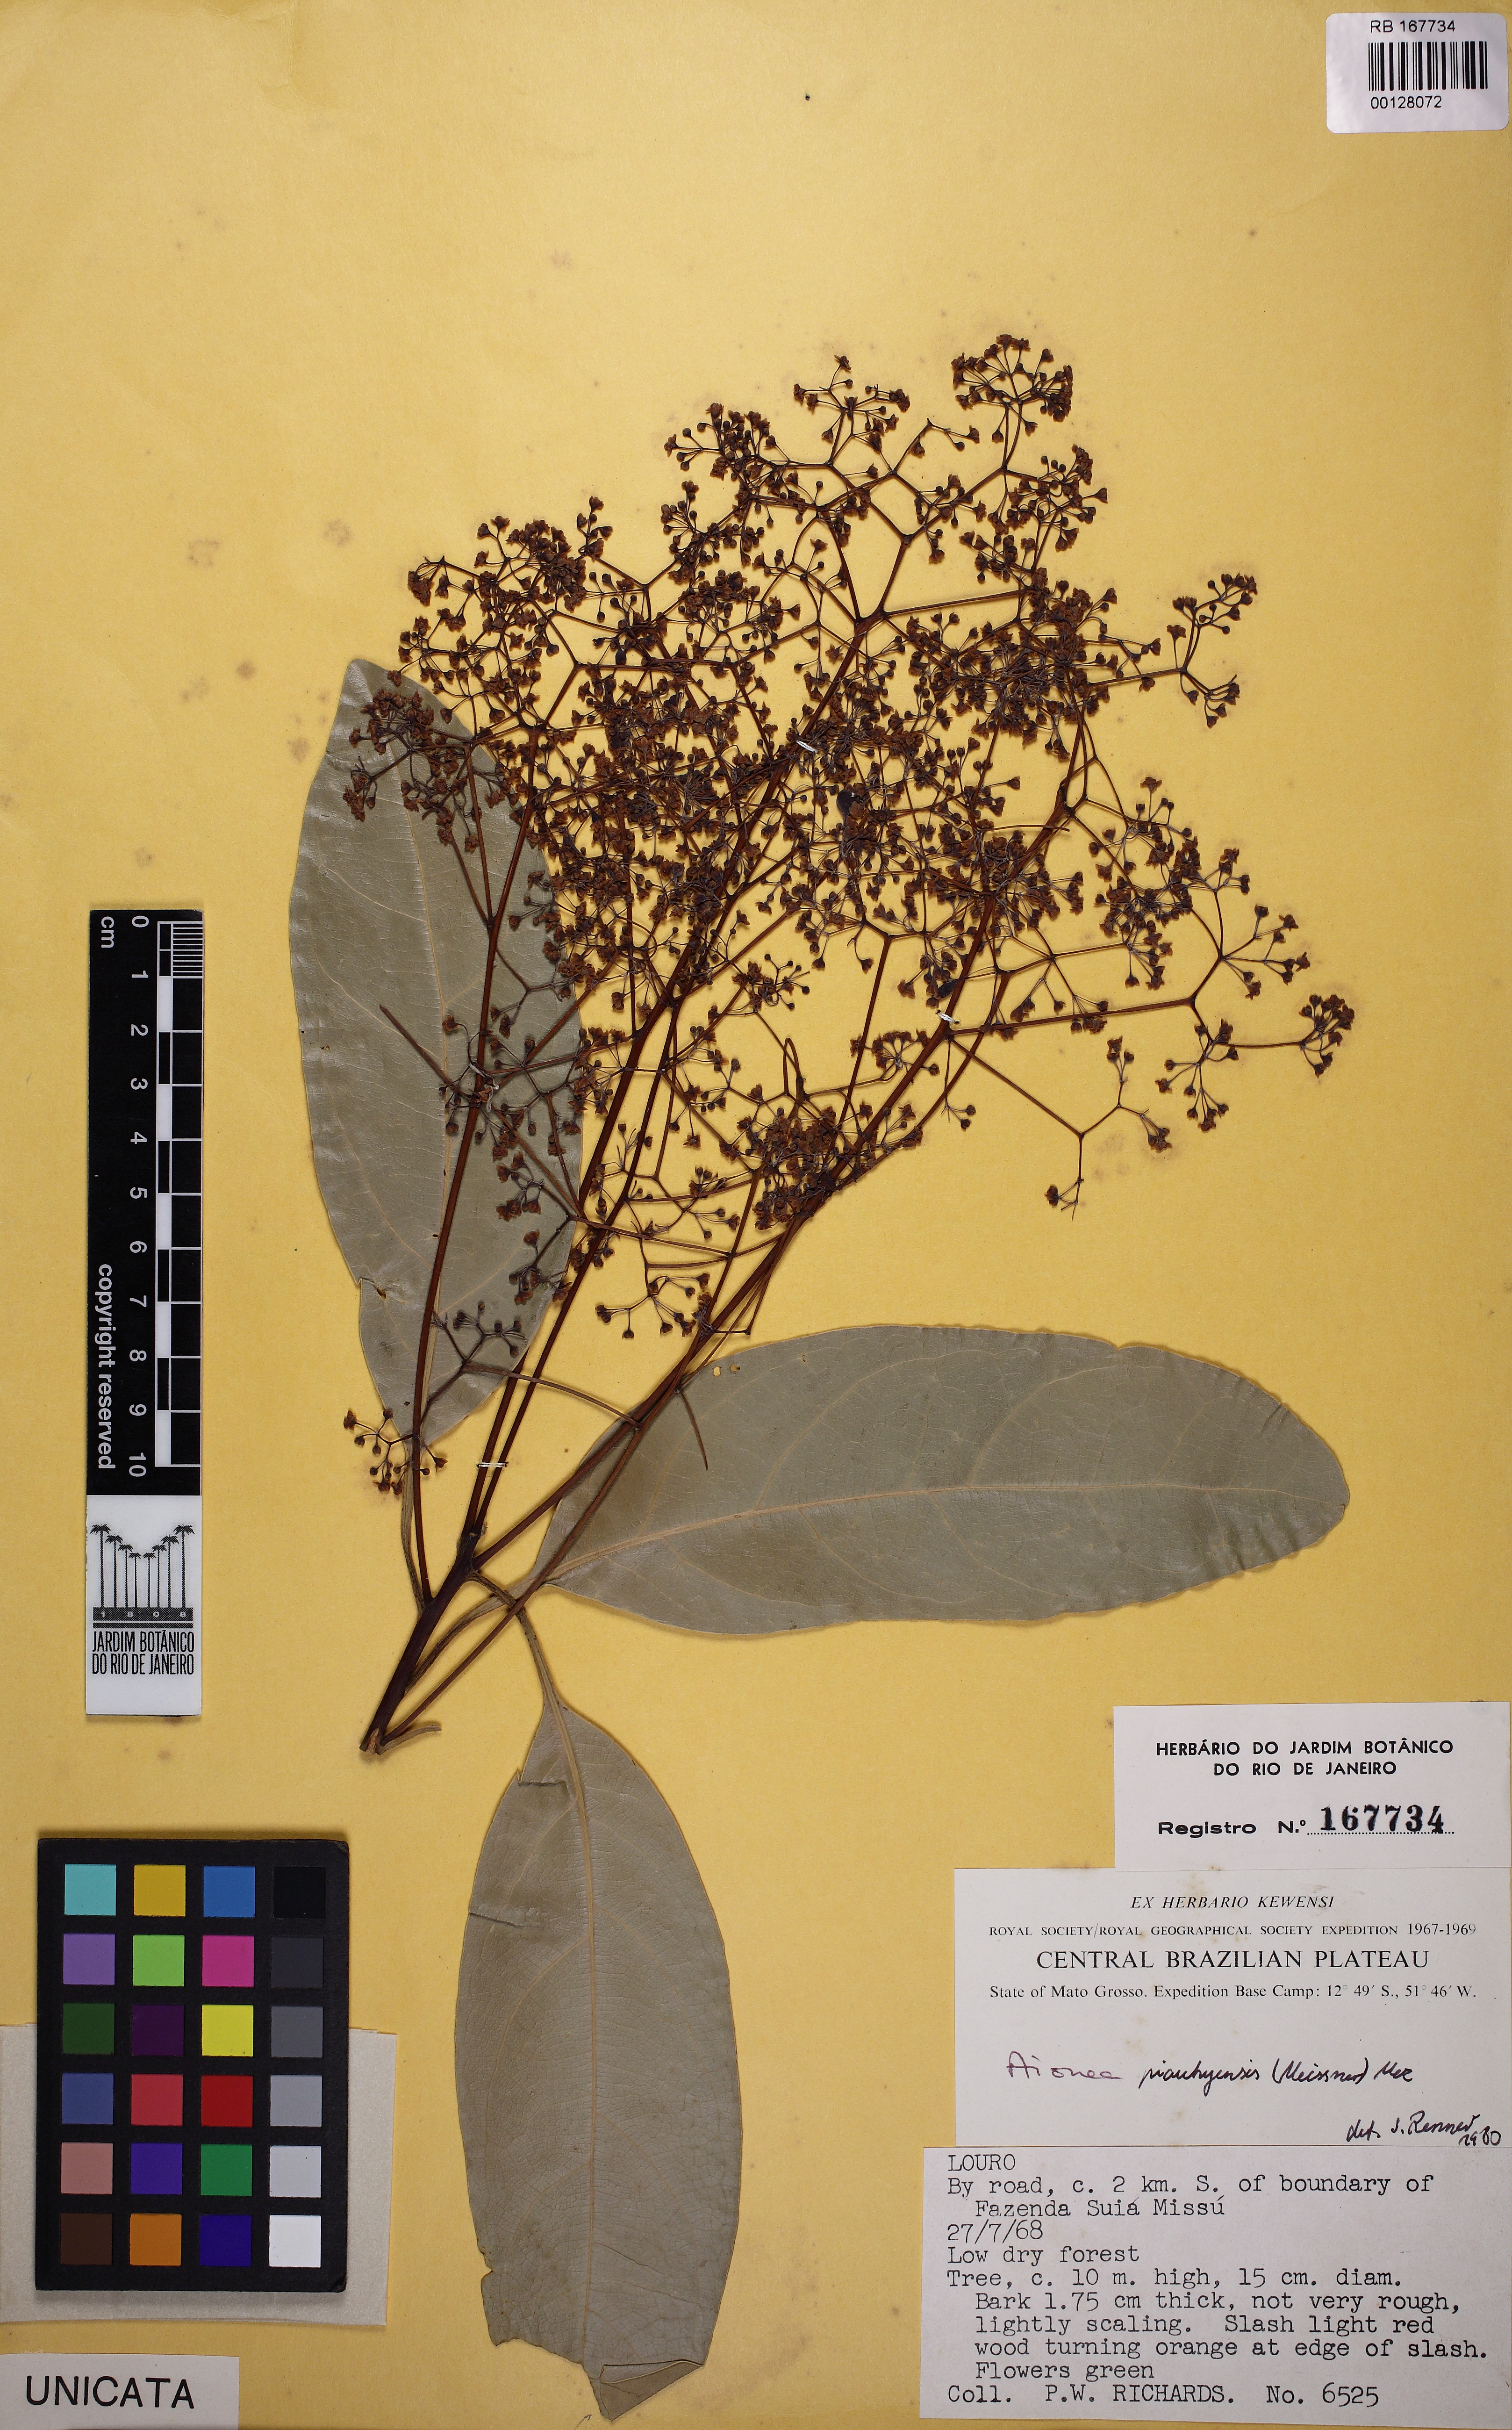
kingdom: Plantae
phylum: Tracheophyta
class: Magnoliopsida
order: Laurales
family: Lauraceae
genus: Aiouea
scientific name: Aiouea piauhyensis
